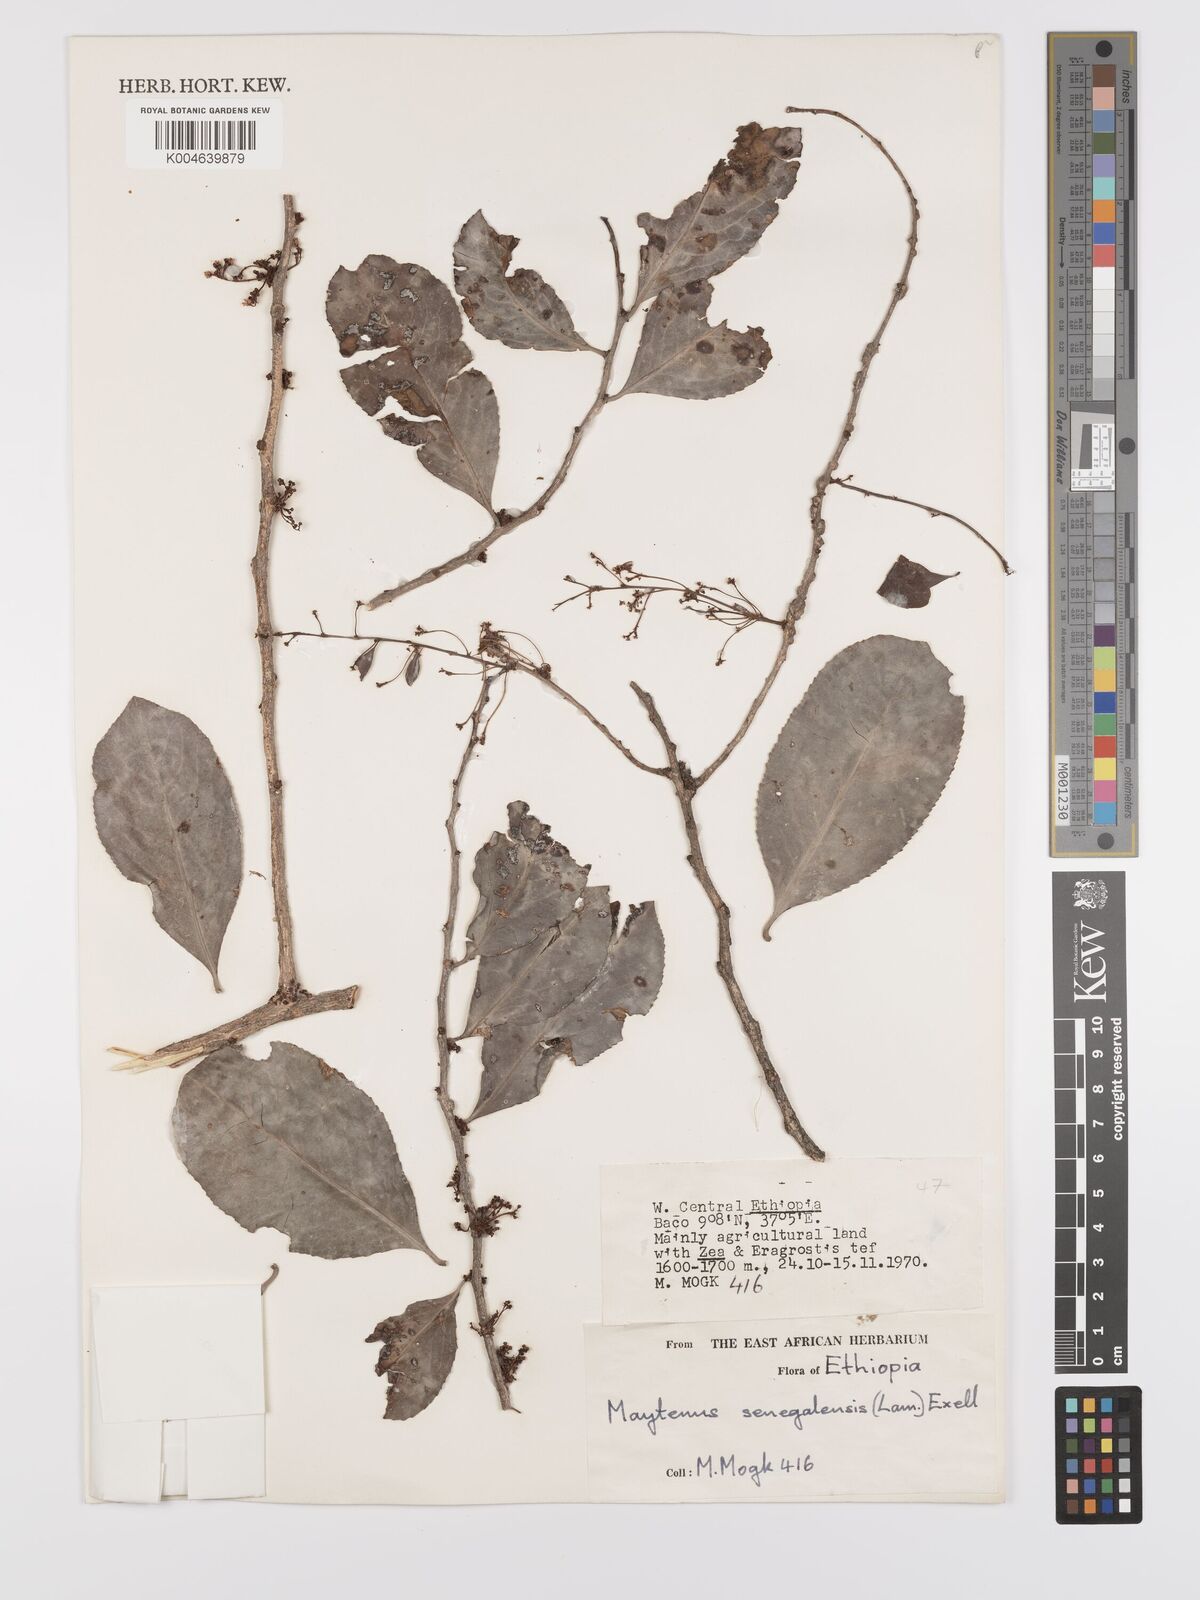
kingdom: Plantae
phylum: Tracheophyta
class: Magnoliopsida
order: Celastrales
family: Celastraceae
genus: Gymnosporia
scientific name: Gymnosporia senegalensis
